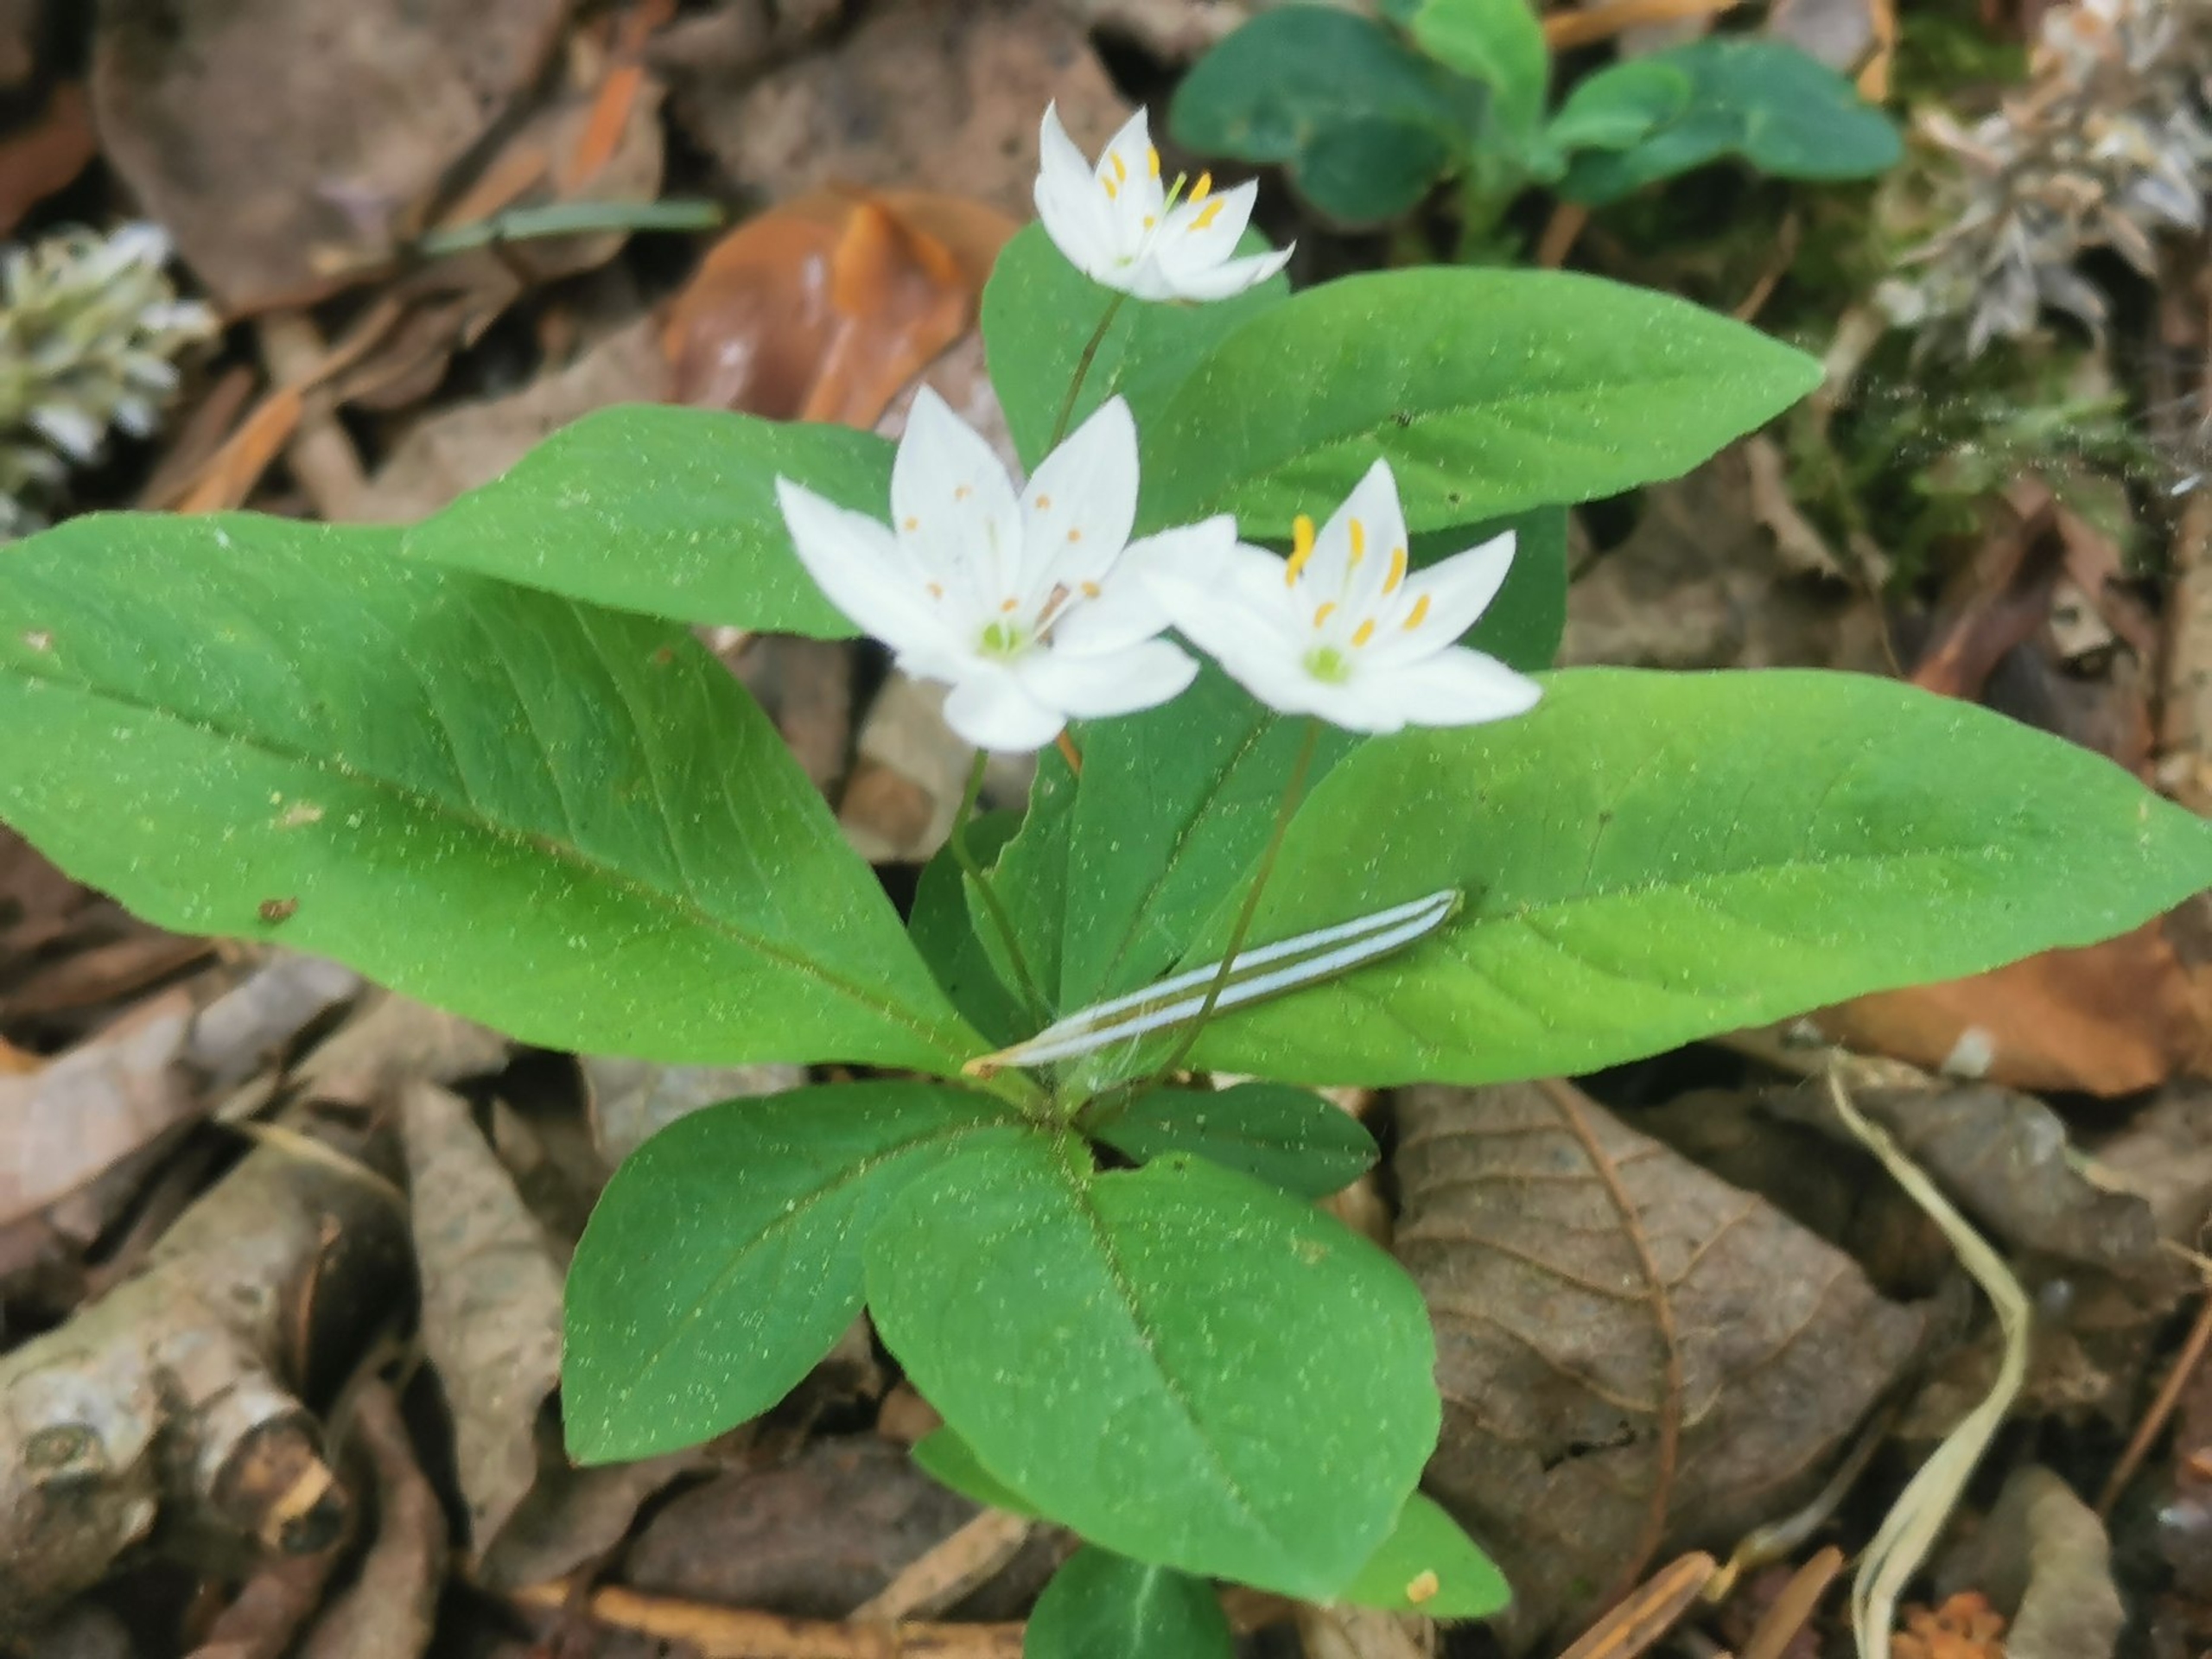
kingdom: Plantae
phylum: Tracheophyta
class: Magnoliopsida
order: Ericales
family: Primulaceae
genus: Lysimachia
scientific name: Lysimachia europaea
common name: Skovstjerne
